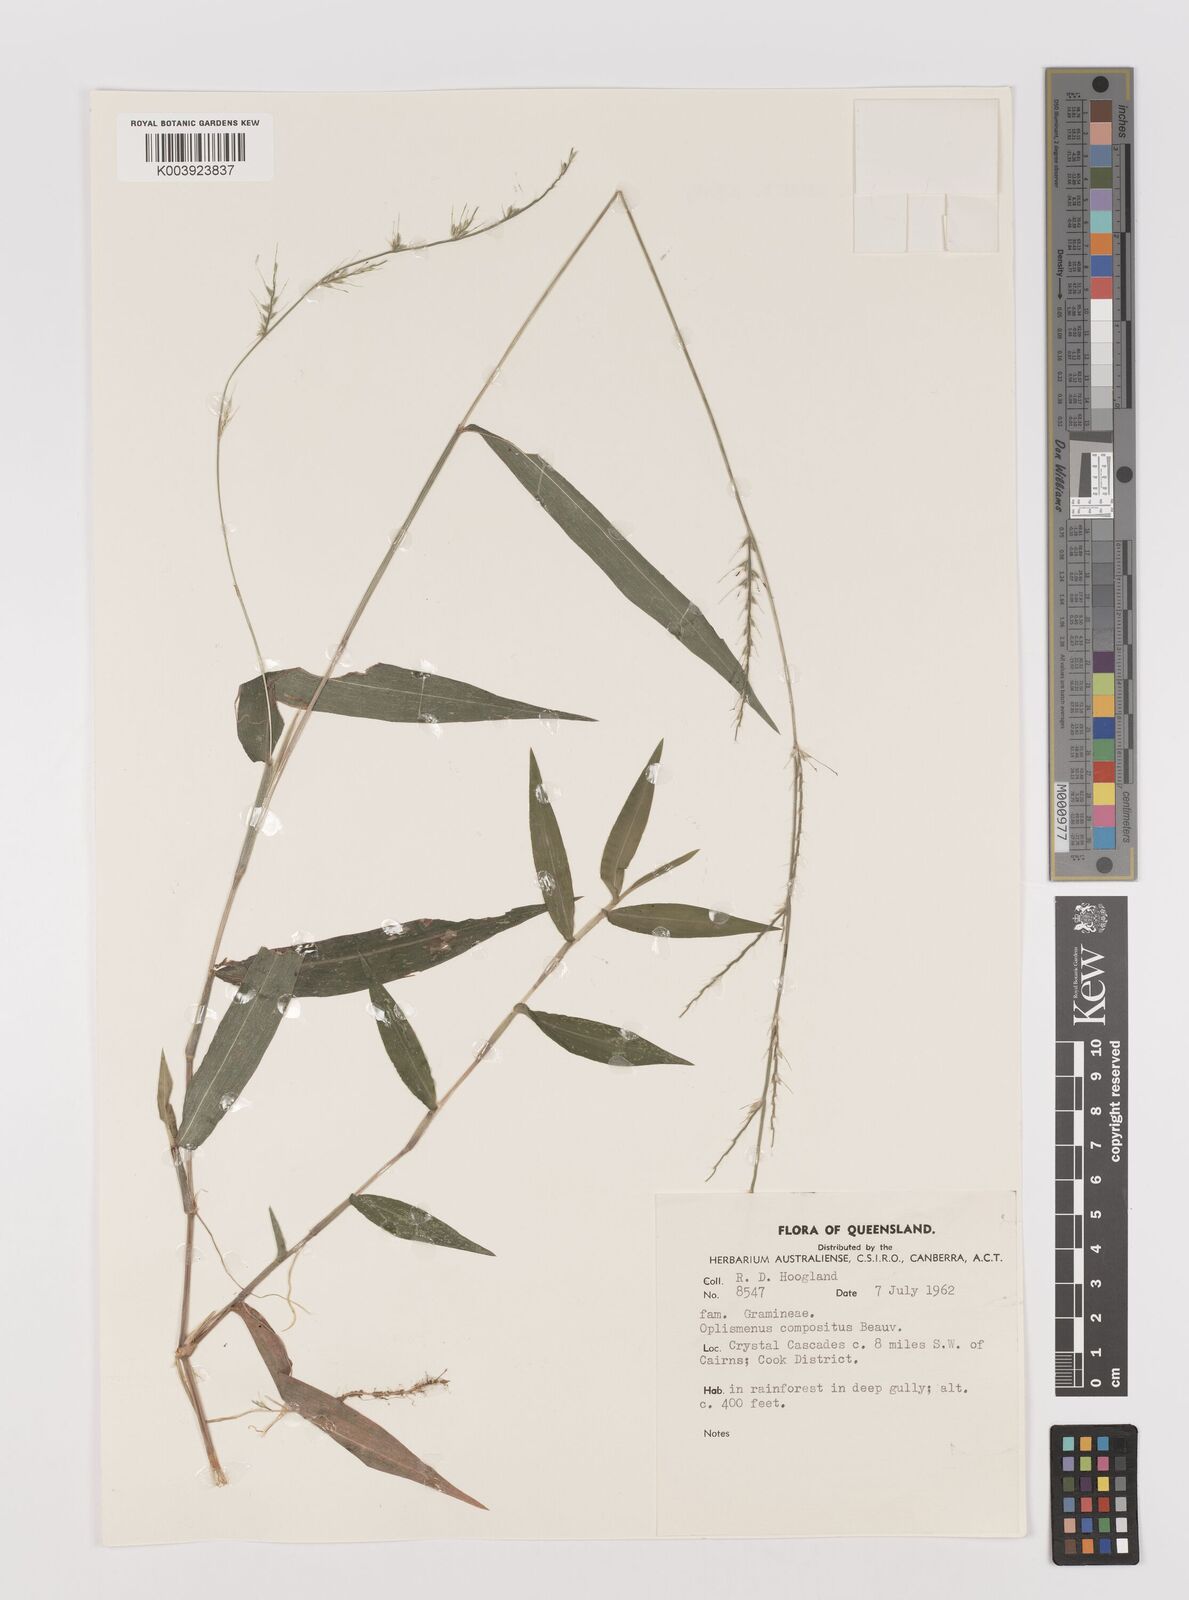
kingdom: Plantae
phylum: Tracheophyta
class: Liliopsida
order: Poales
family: Poaceae
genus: Oplismenus
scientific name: Oplismenus compositus
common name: Running mountain grass
